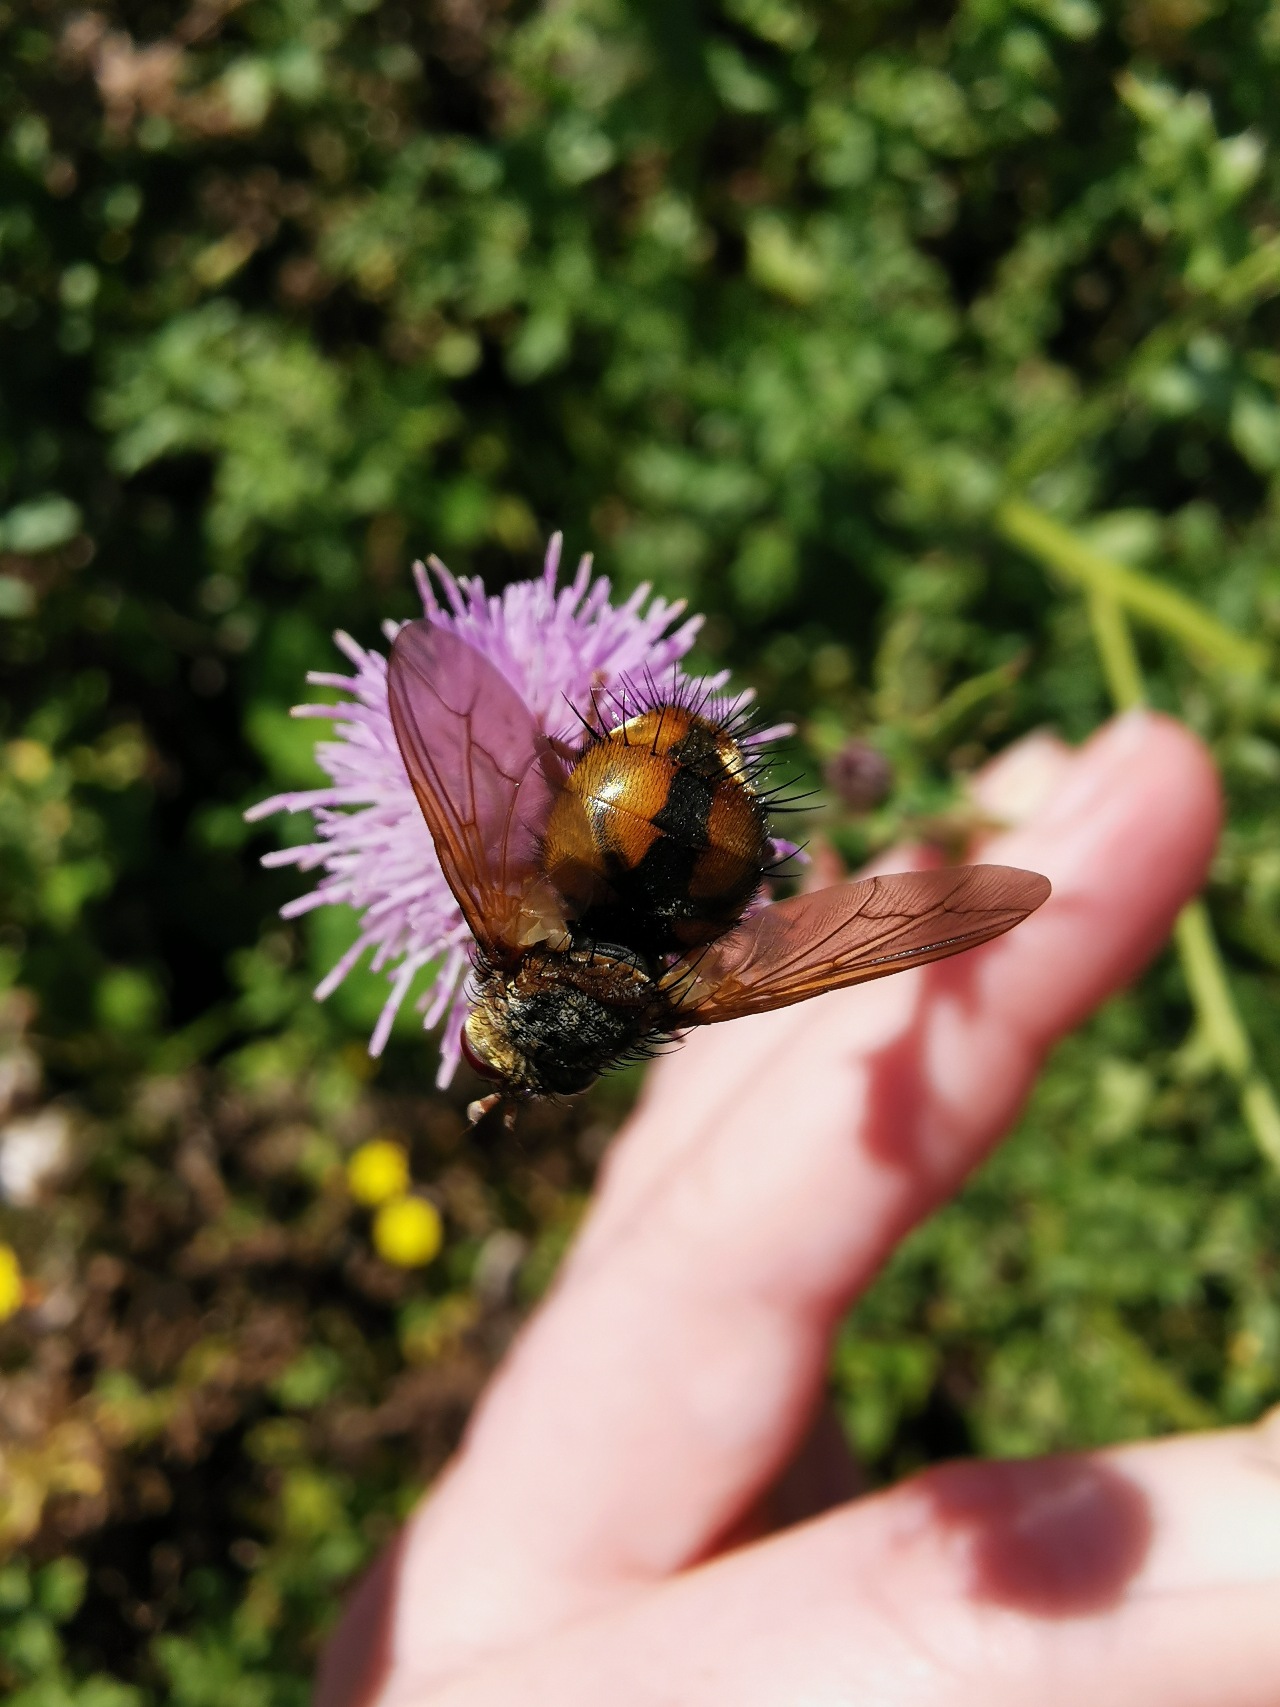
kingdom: Animalia
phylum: Arthropoda
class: Insecta
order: Diptera
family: Tachinidae
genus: Tachina
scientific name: Tachina fera
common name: Mellemfluen oskar
